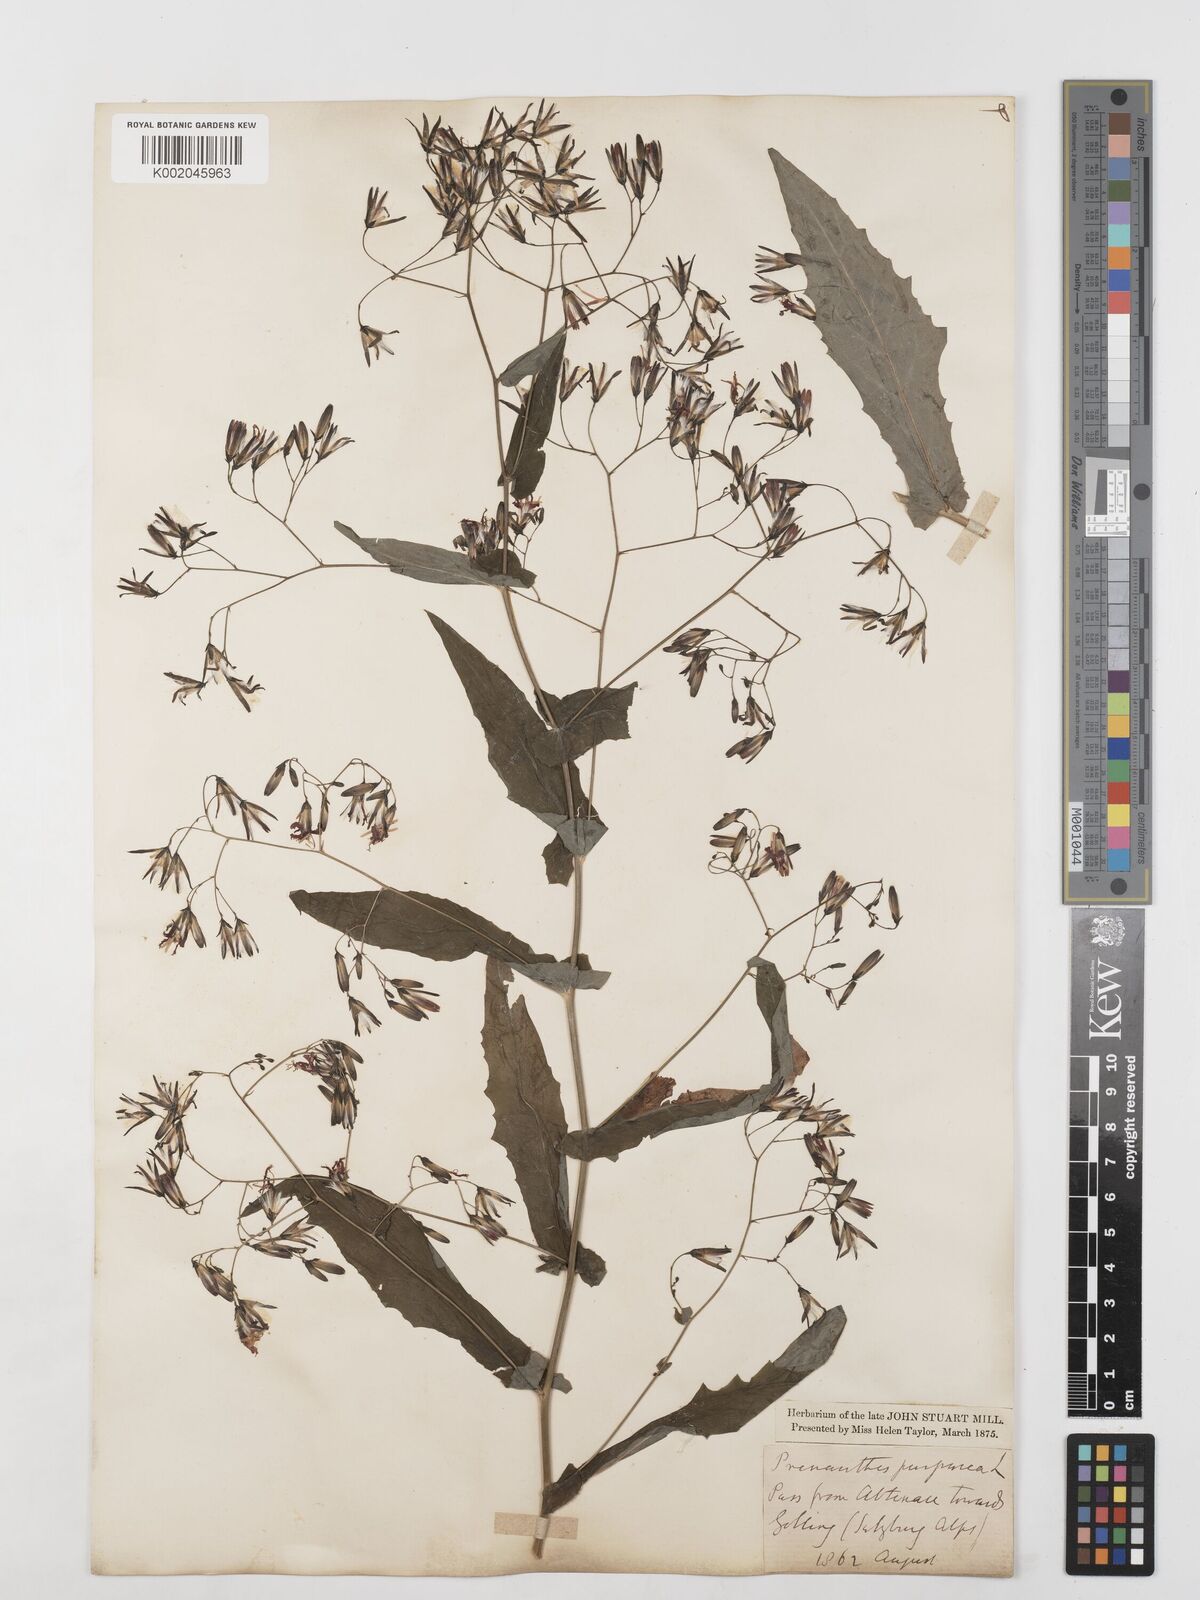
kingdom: Plantae
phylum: Tracheophyta
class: Magnoliopsida
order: Asterales
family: Asteraceae
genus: Prenanthes
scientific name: Prenanthes purpurea
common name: Purple lettuce
